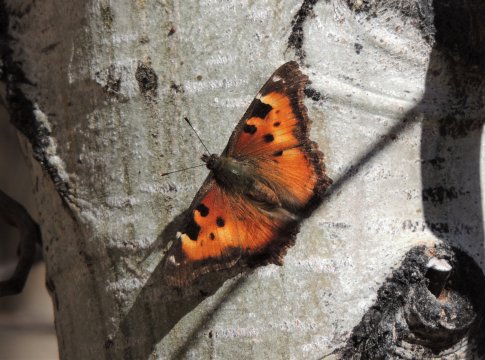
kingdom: Animalia
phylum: Arthropoda
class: Insecta
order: Lepidoptera
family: Nymphalidae
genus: Nymphalis
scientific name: Nymphalis californica
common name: California Tortoiseshell
